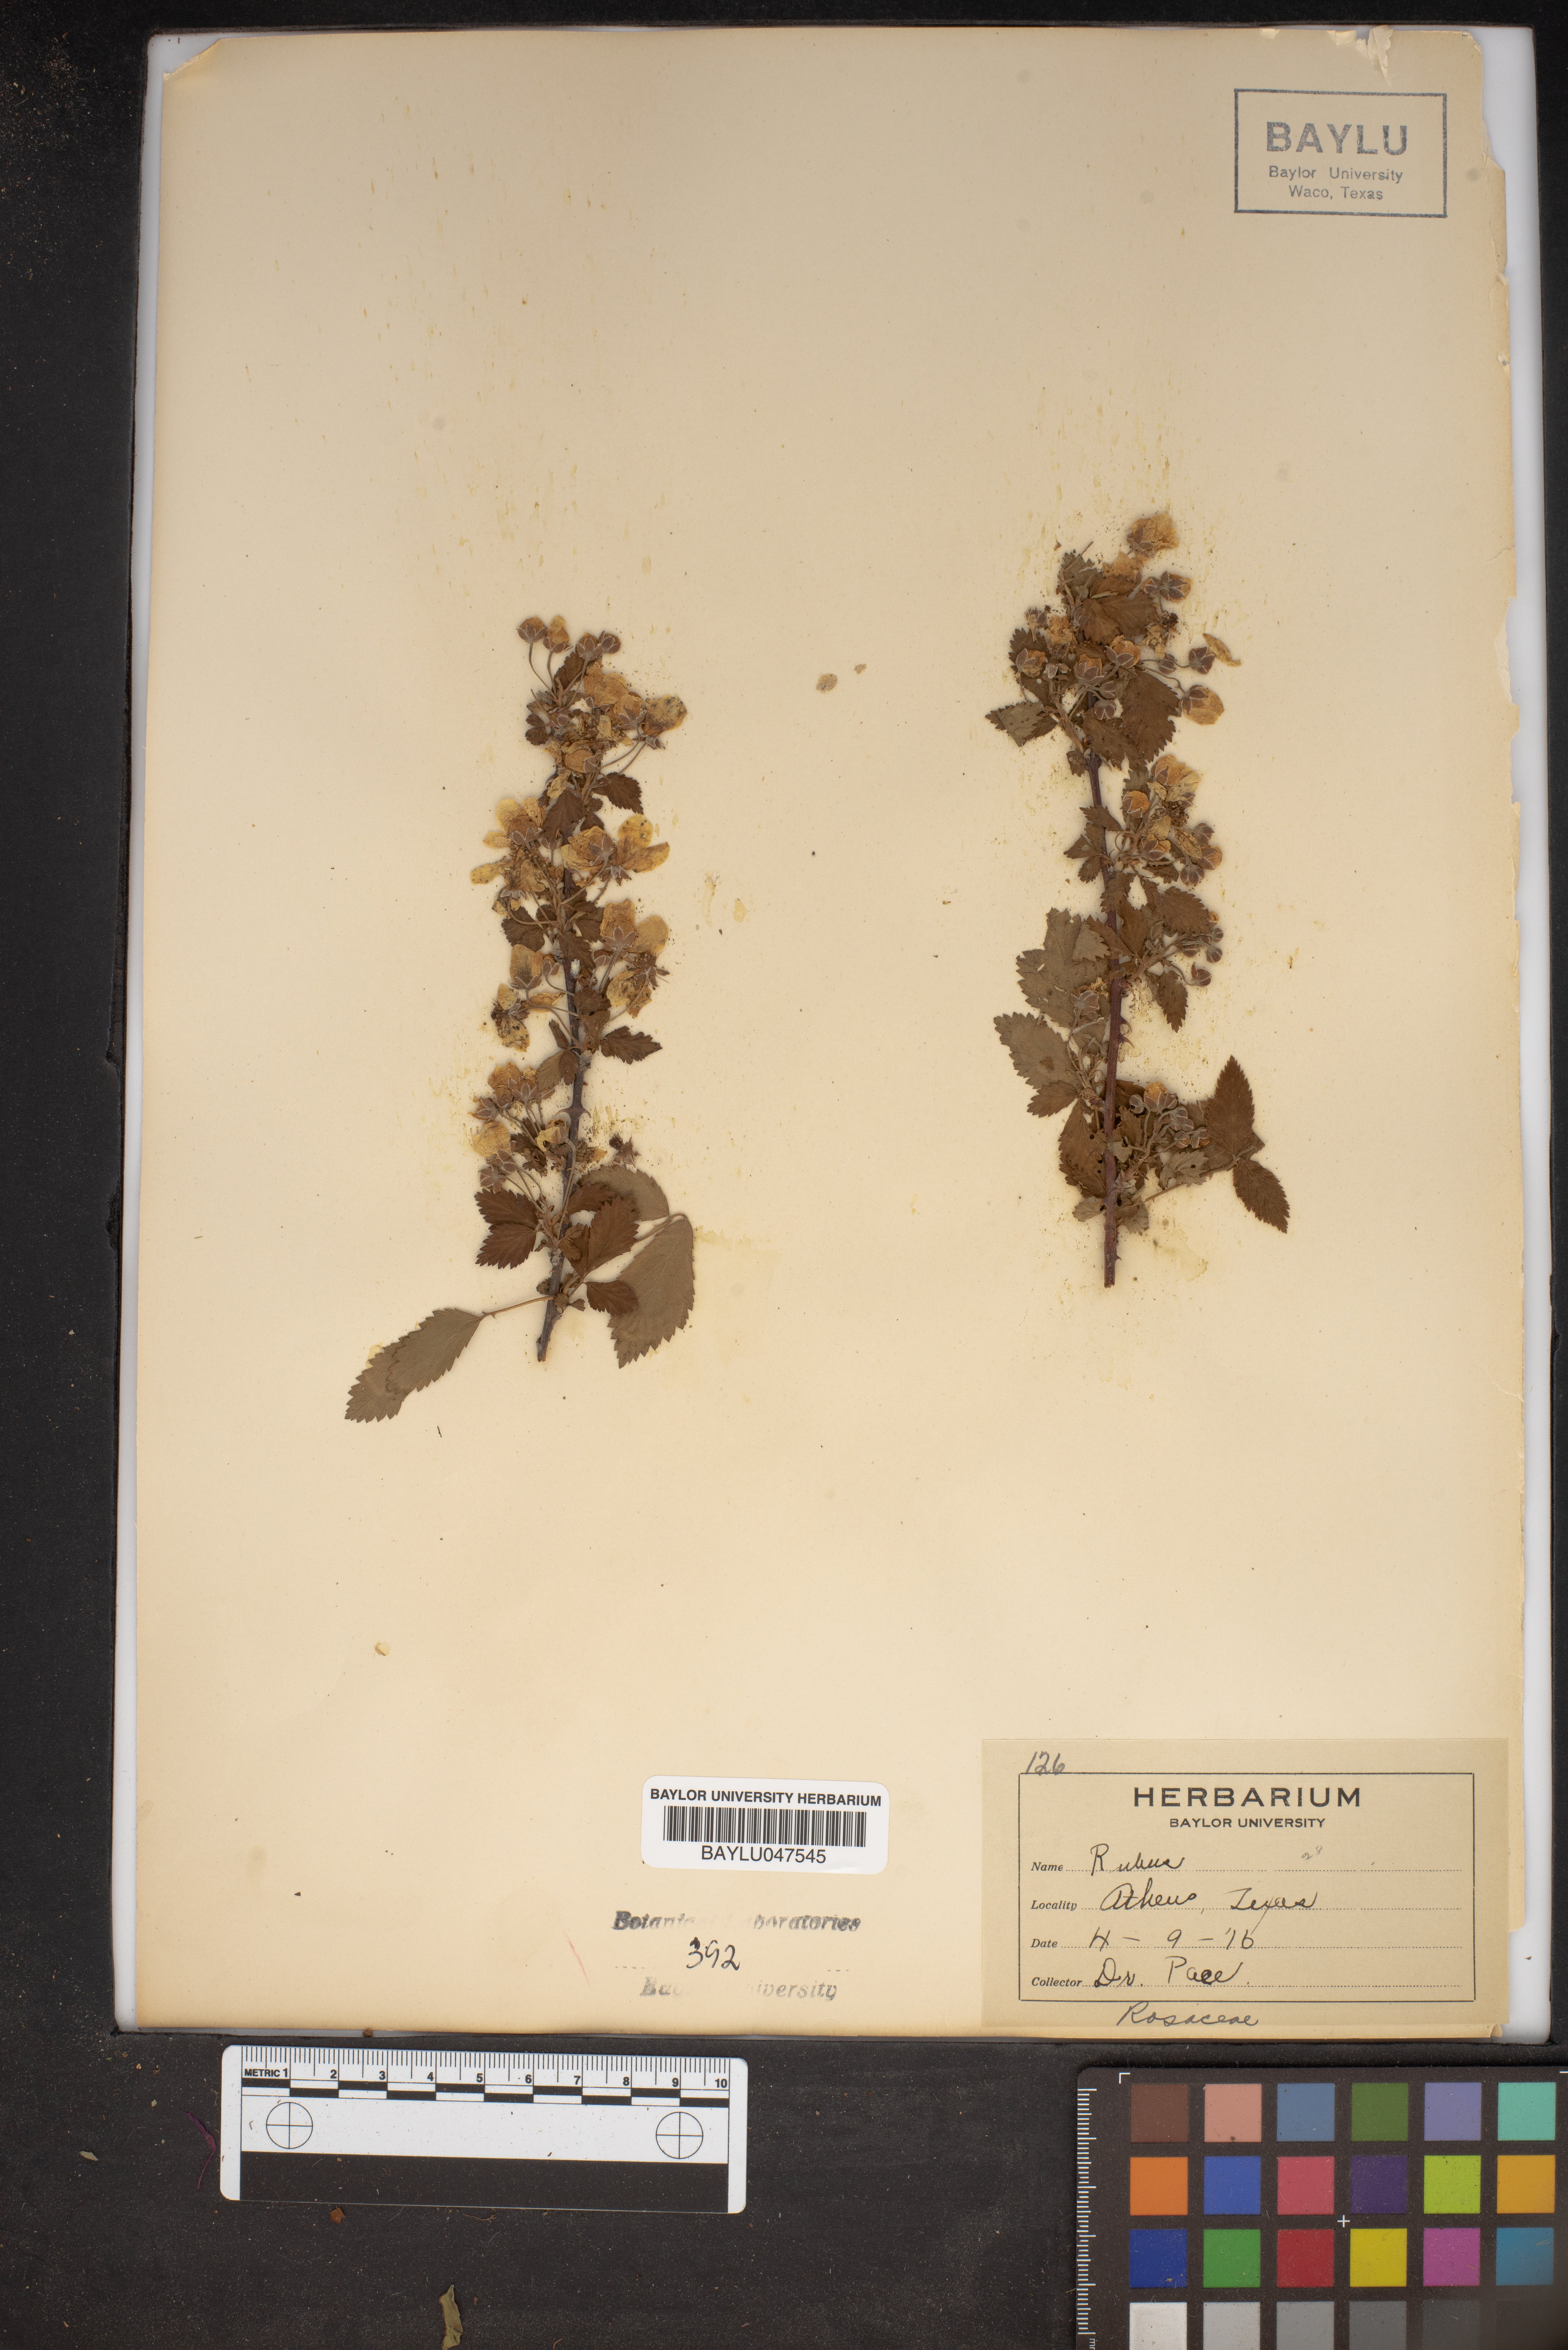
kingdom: Plantae
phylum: Tracheophyta
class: Magnoliopsida
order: Rosales
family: Rosaceae
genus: Rubus
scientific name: Rubus
